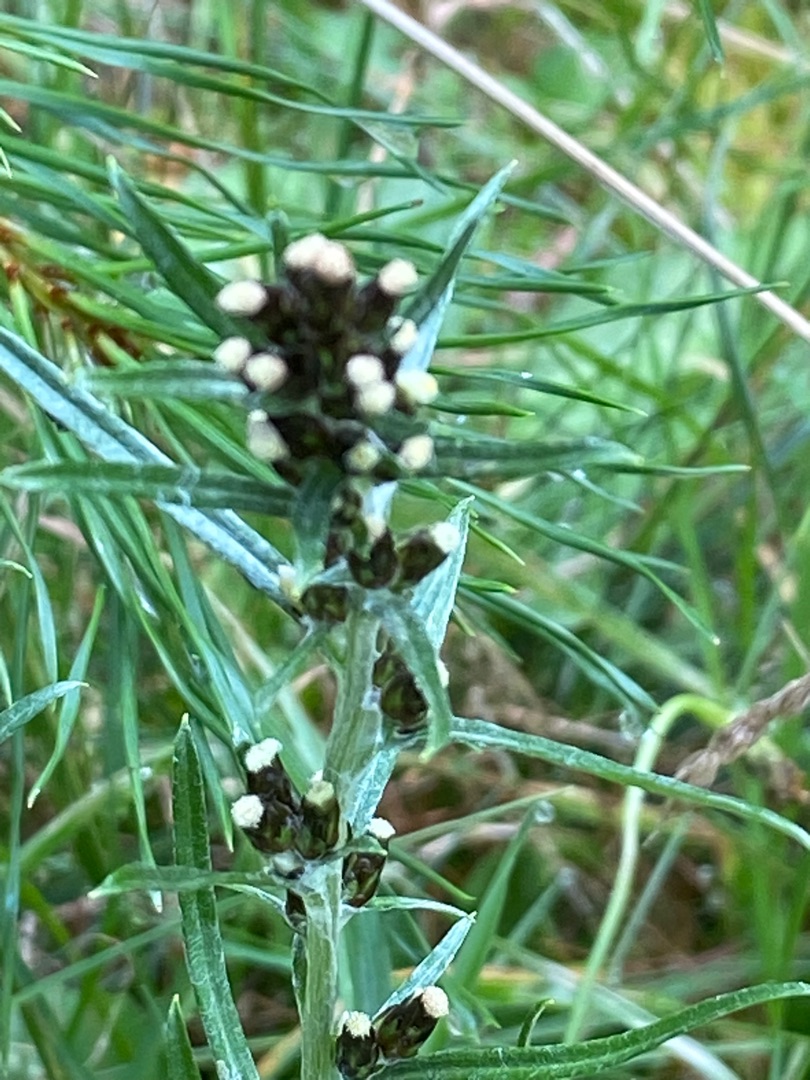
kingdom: Plantae
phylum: Tracheophyta
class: Magnoliopsida
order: Asterales
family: Asteraceae
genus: Omalotheca
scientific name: Omalotheca sylvatica
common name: Rank evighedsblomst
